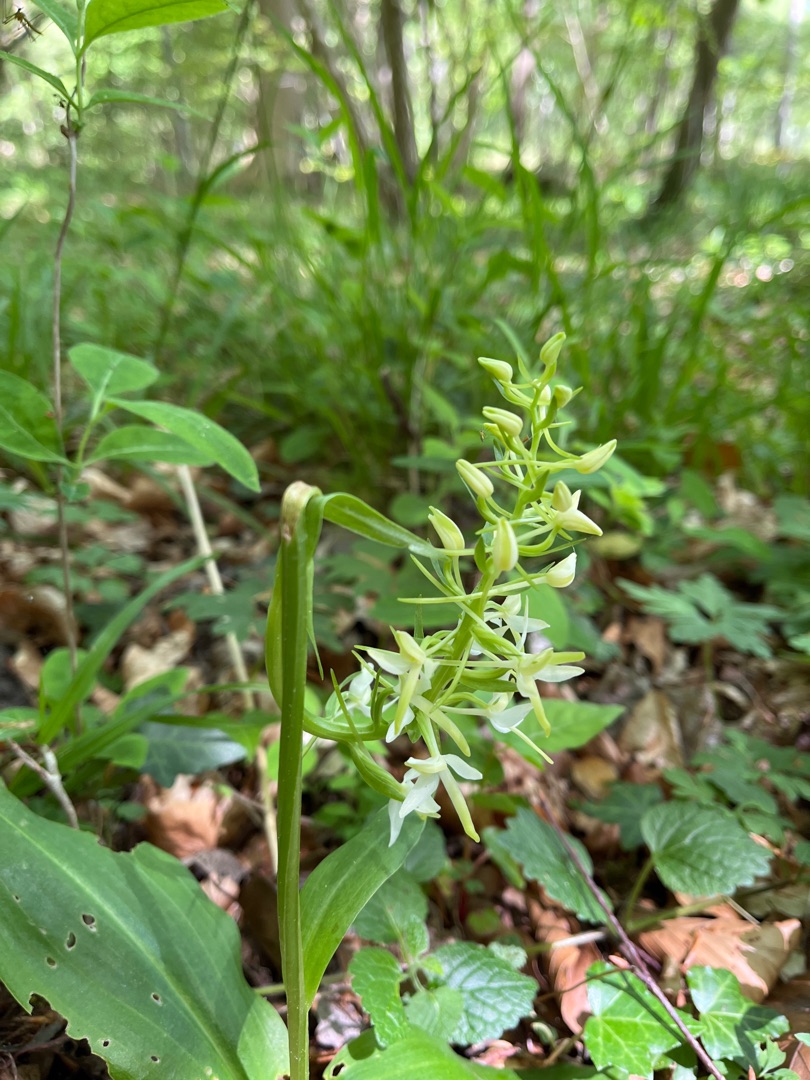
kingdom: Plantae
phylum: Tracheophyta
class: Liliopsida
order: Asparagales
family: Orchidaceae
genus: Platanthera
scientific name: Platanthera bifolia
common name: Langsporet gøgelilje
